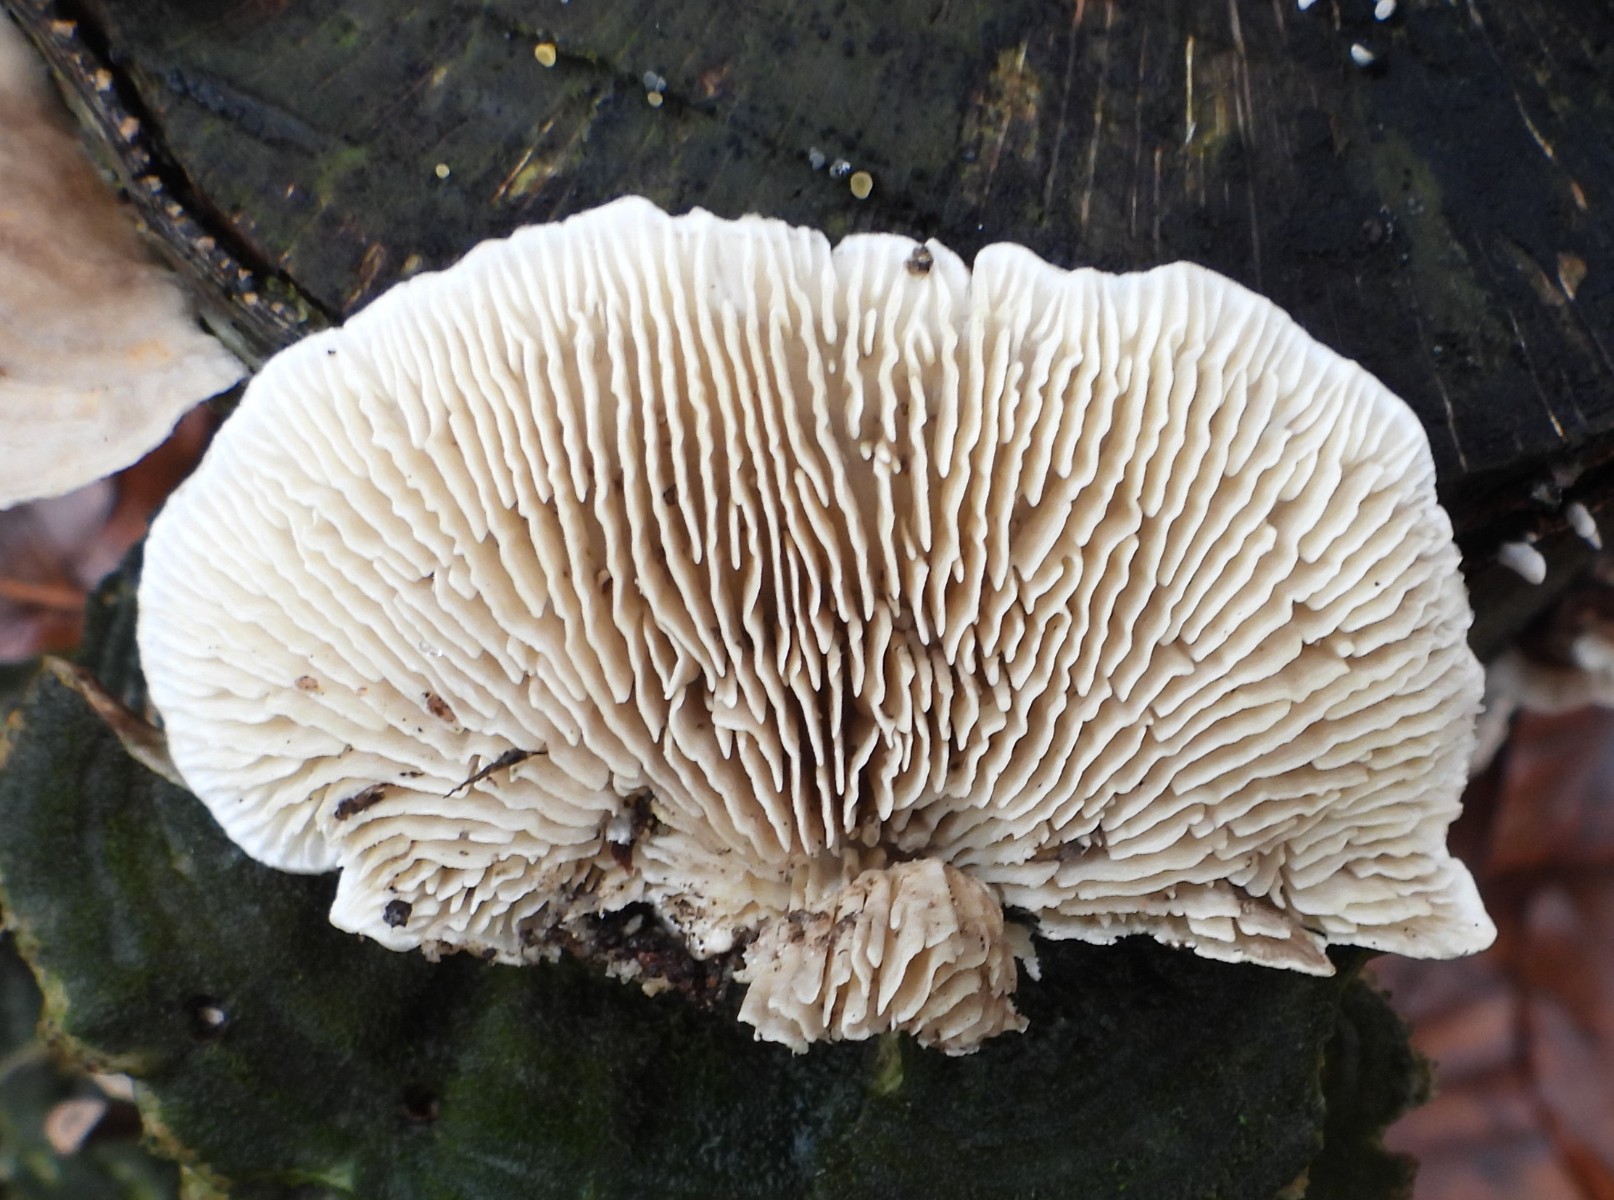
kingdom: Fungi
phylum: Basidiomycota
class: Agaricomycetes
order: Polyporales
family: Polyporaceae
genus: Lenzites
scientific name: Lenzites betulinus
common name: birke-læderporesvamp
